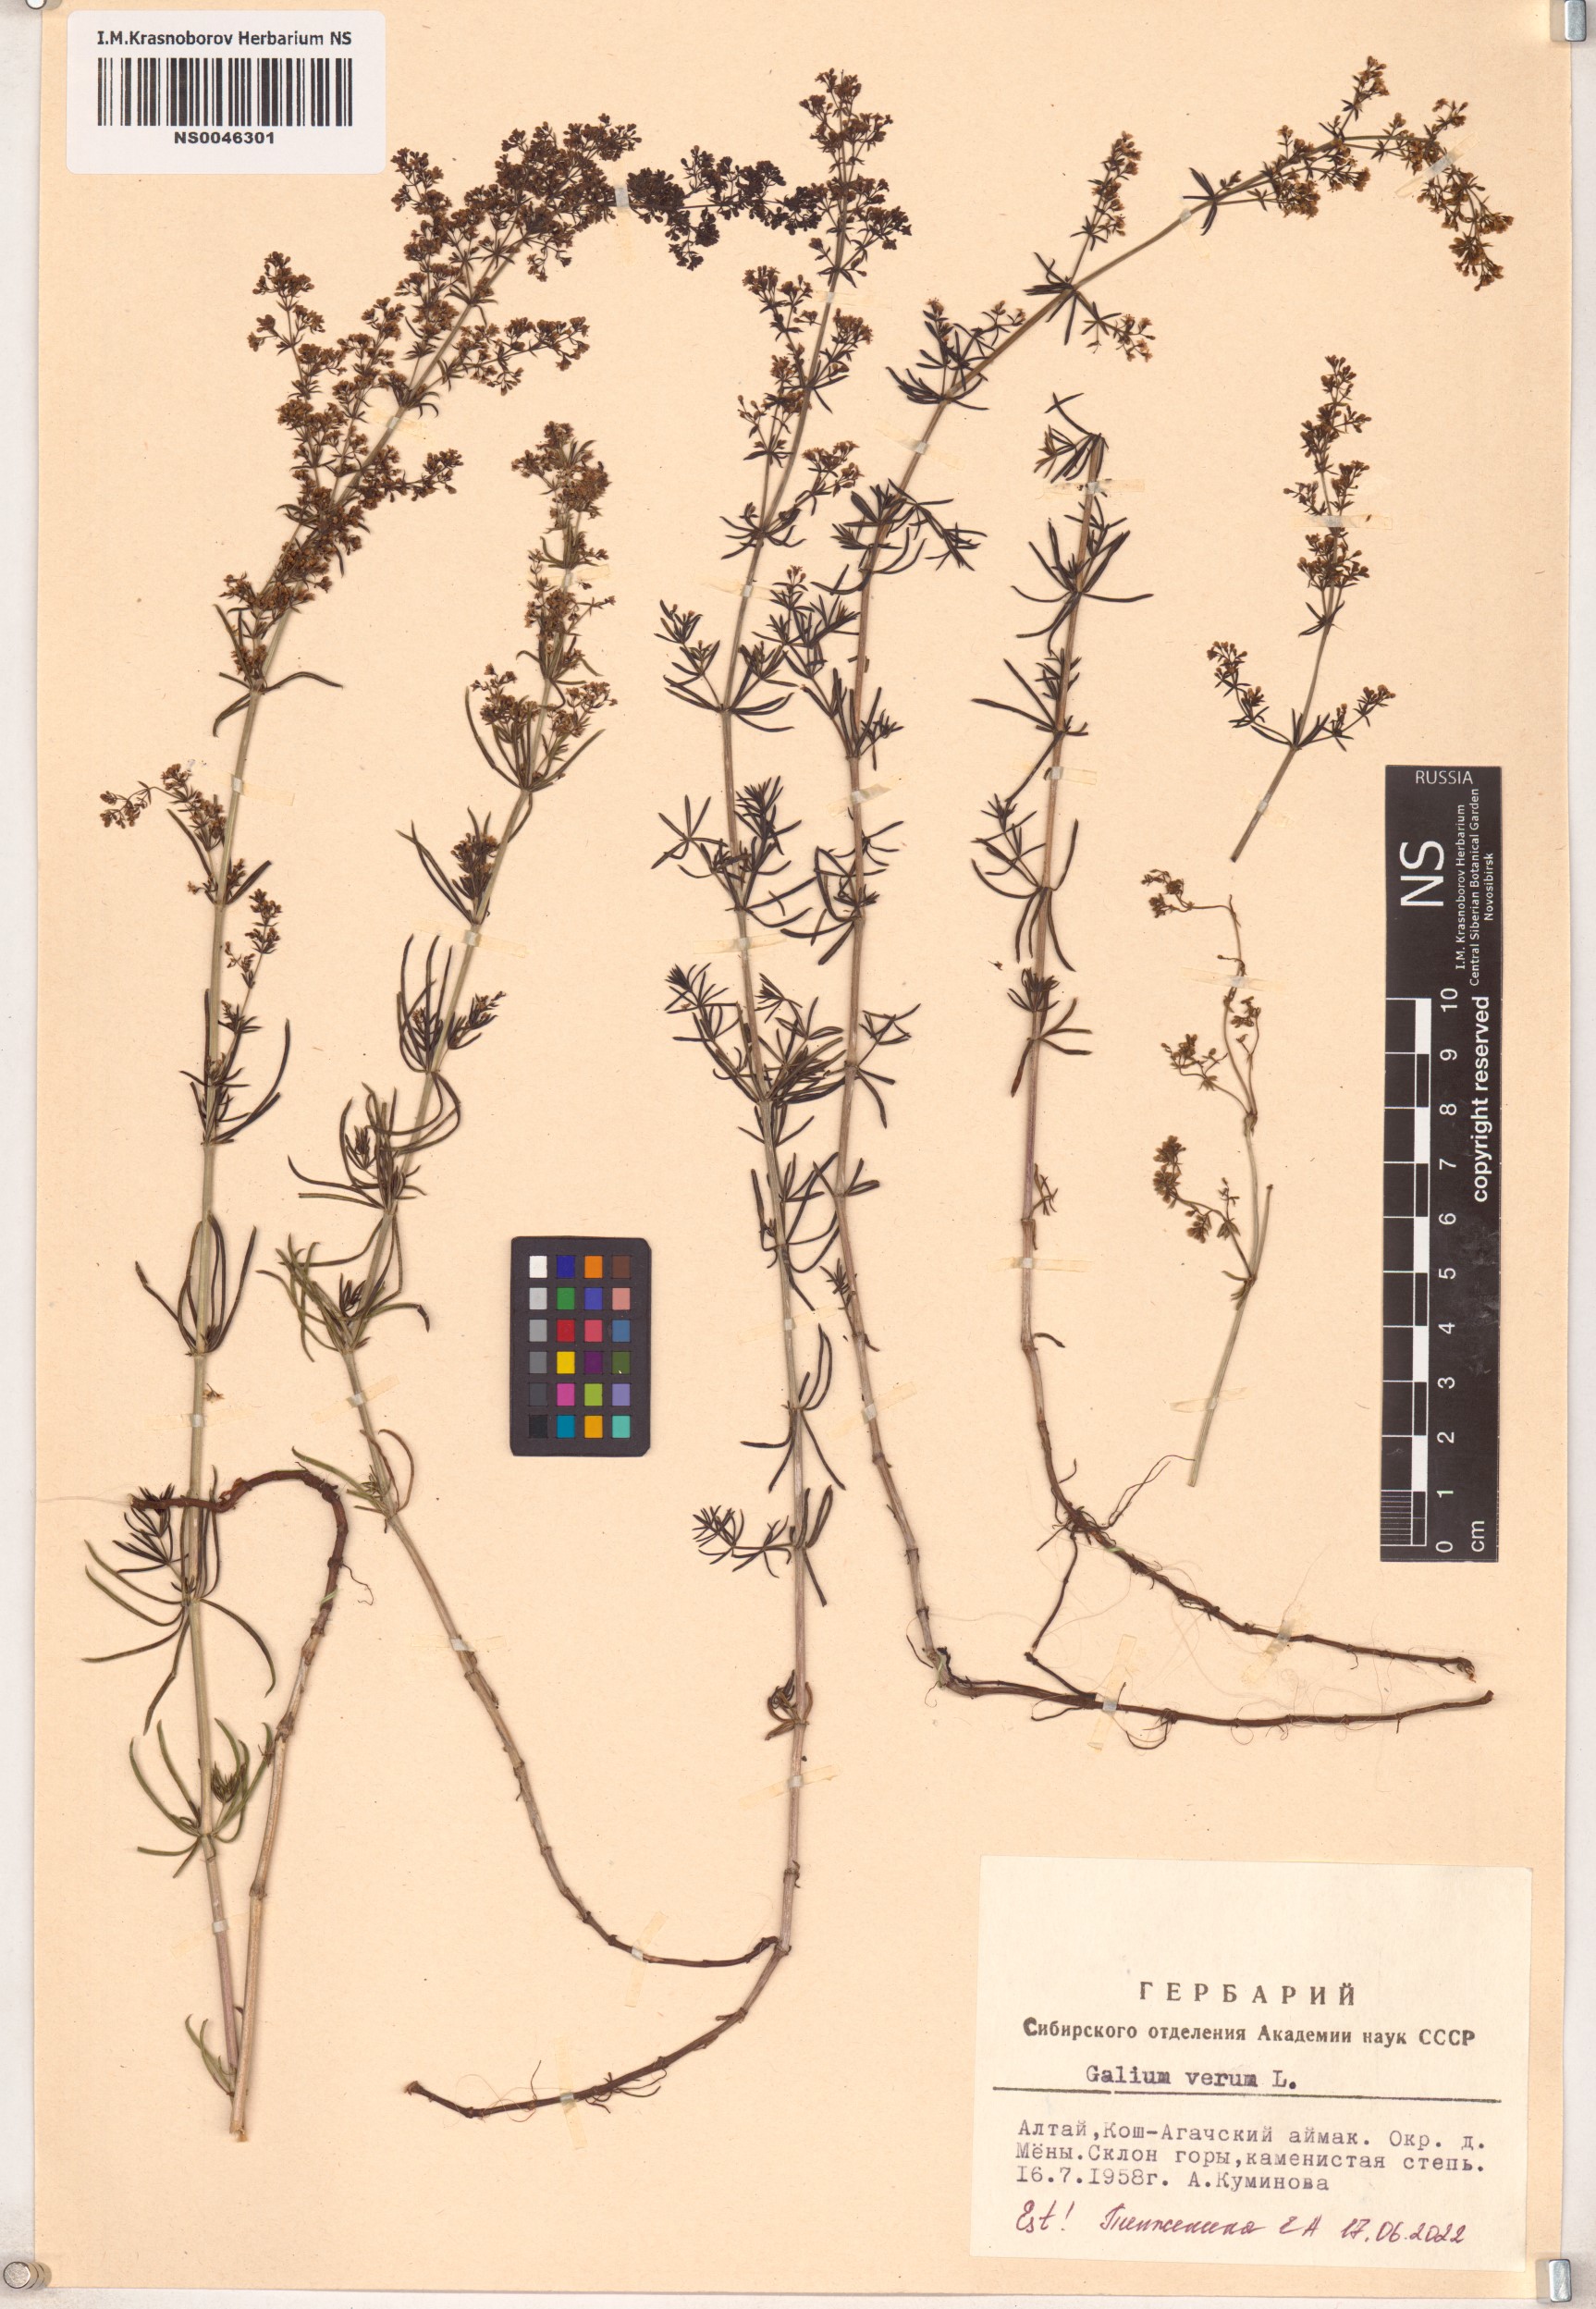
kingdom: Plantae
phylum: Tracheophyta
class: Magnoliopsida
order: Gentianales
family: Rubiaceae
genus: Galium
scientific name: Galium verum
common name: Lady's bedstraw
